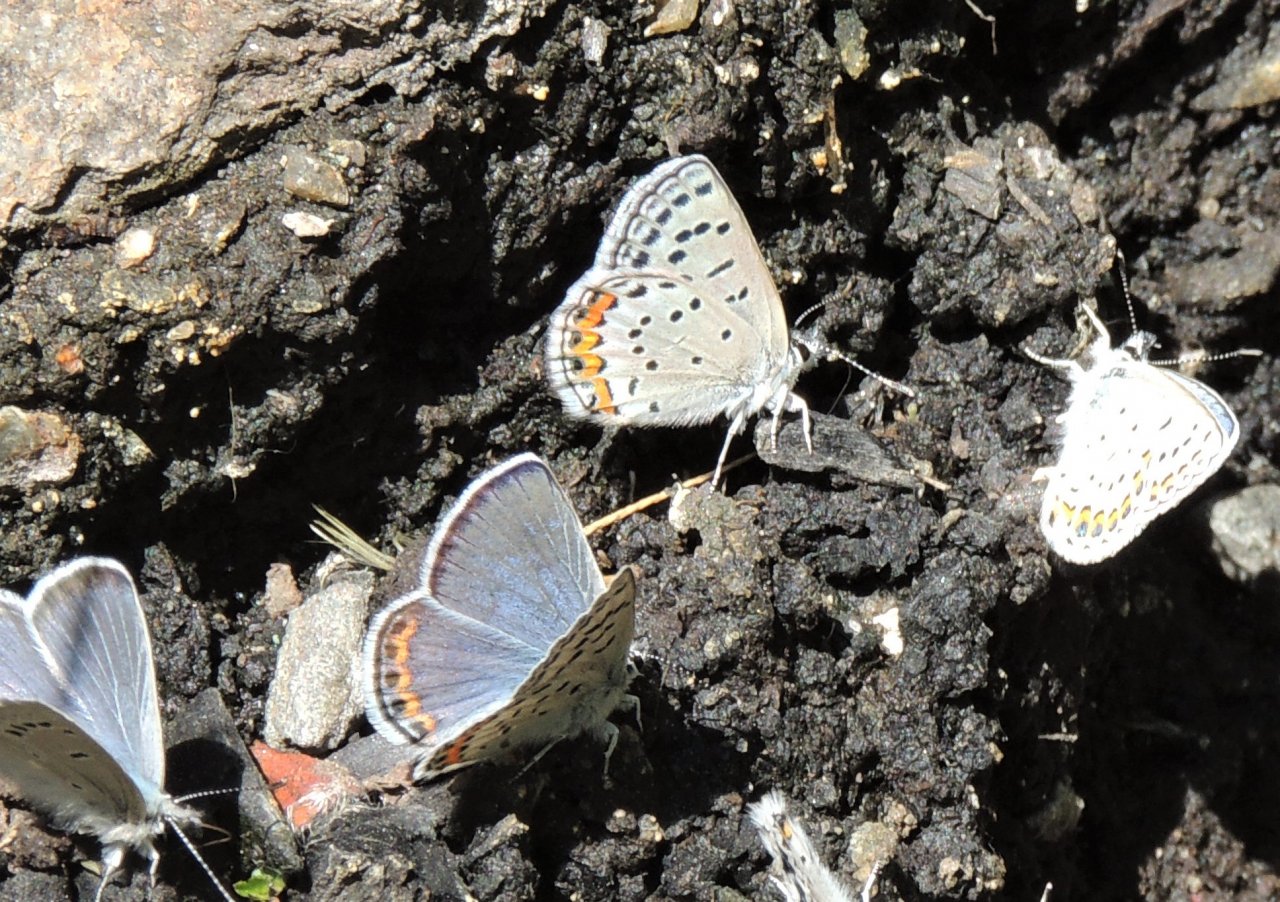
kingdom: Animalia
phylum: Arthropoda
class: Insecta
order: Lepidoptera
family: Lycaenidae
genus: Plebejus
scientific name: Plebejus lupini
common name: Lupine Blue
